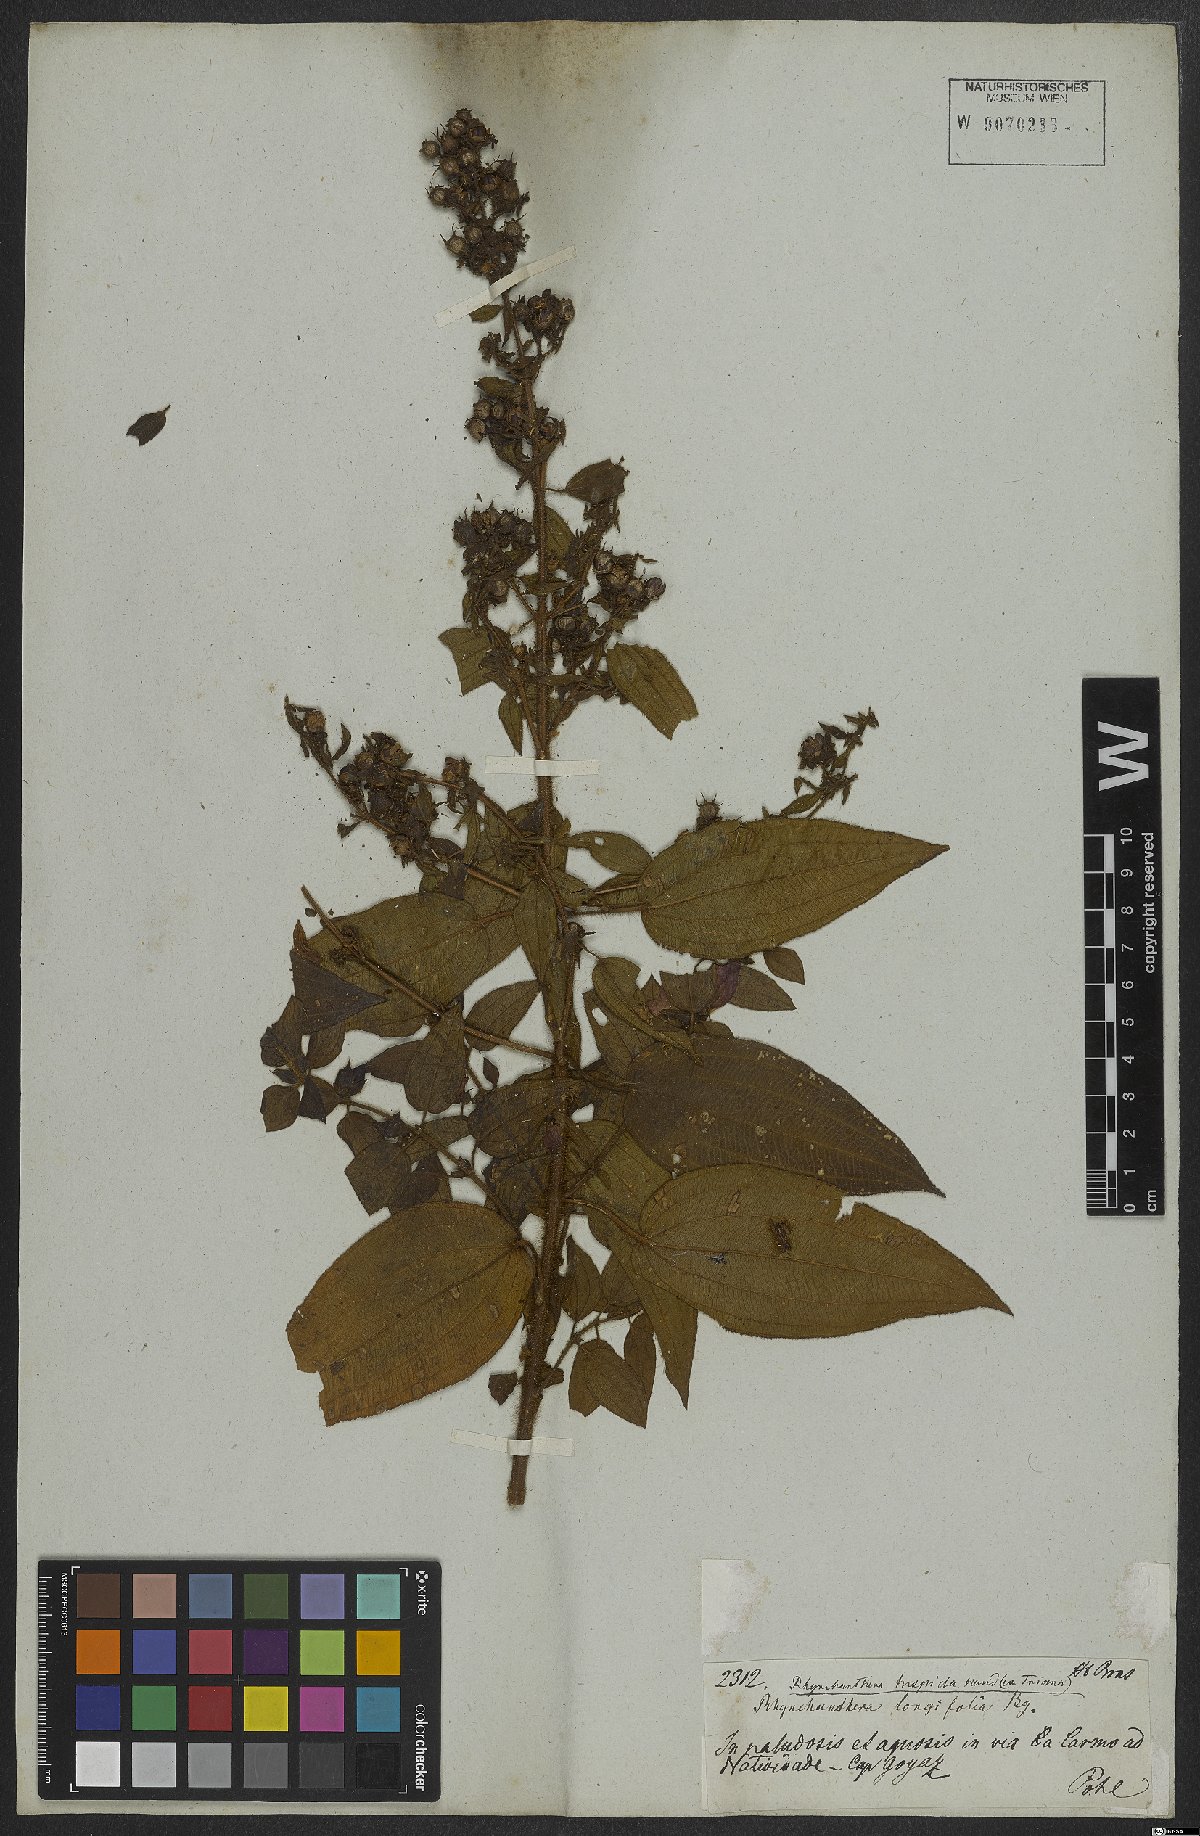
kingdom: Plantae
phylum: Tracheophyta
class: Magnoliopsida
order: Myrtales
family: Melastomataceae
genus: Rhynchanthera
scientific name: Rhynchanthera
